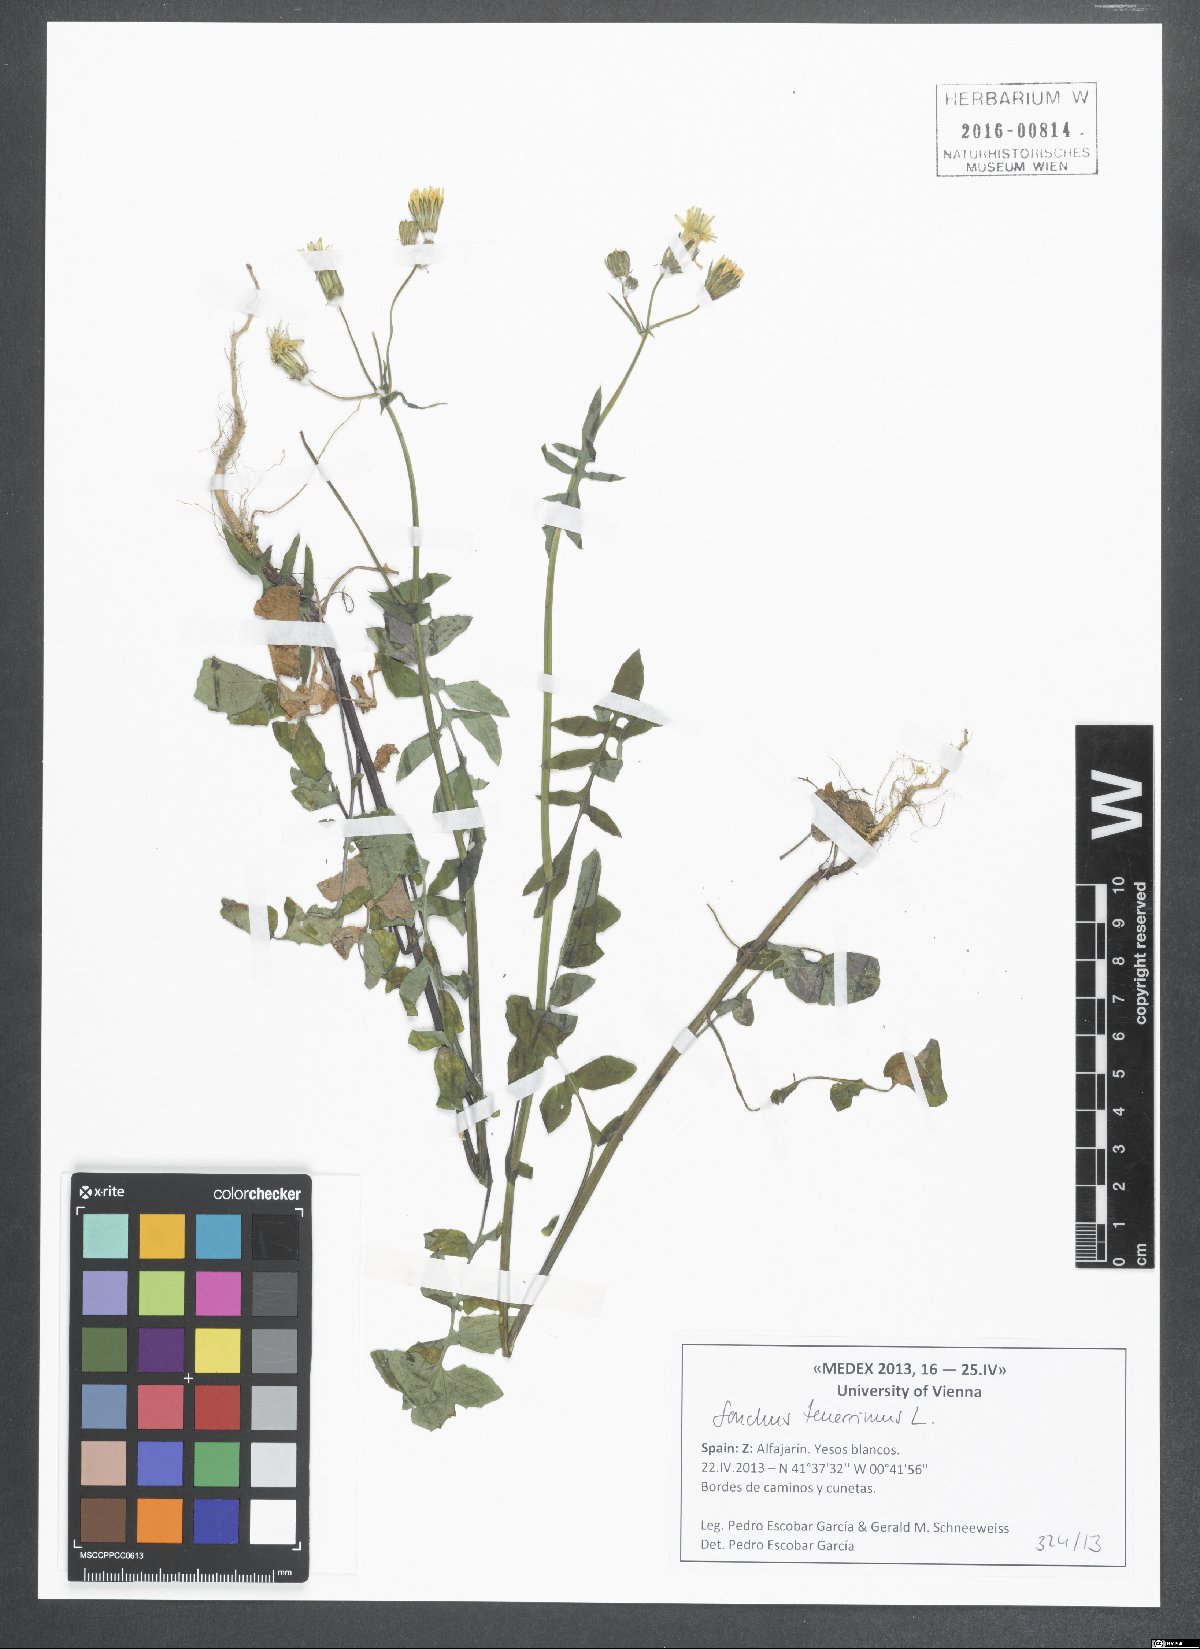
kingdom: Plantae
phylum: Tracheophyta
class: Magnoliopsida
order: Asterales
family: Asteraceae
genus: Sonchus
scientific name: Sonchus tenerrimus
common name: Clammy sowthistle
